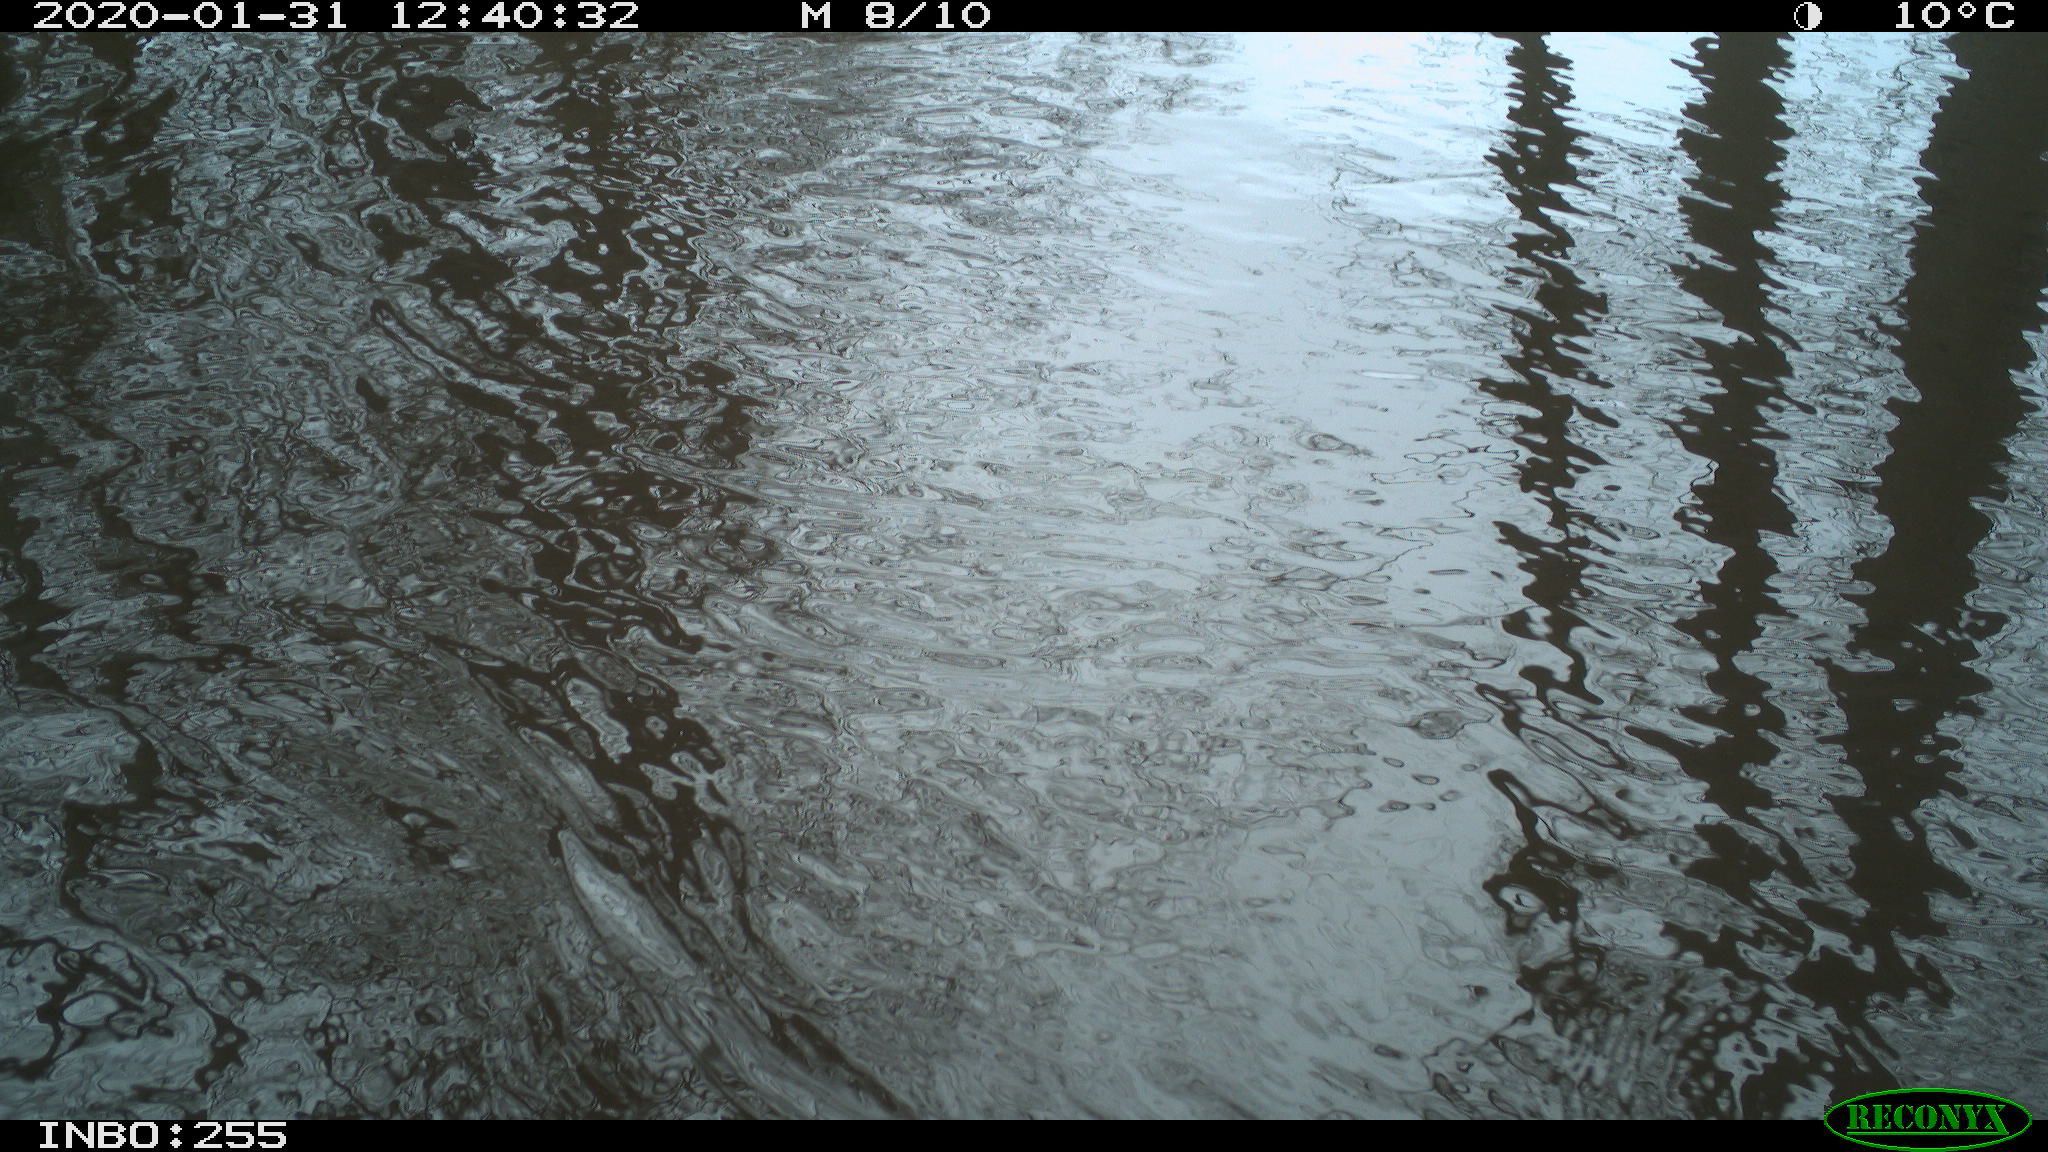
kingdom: Animalia
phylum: Chordata
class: Aves
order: Gruiformes
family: Rallidae
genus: Fulica
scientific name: Fulica atra
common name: Eurasian coot
